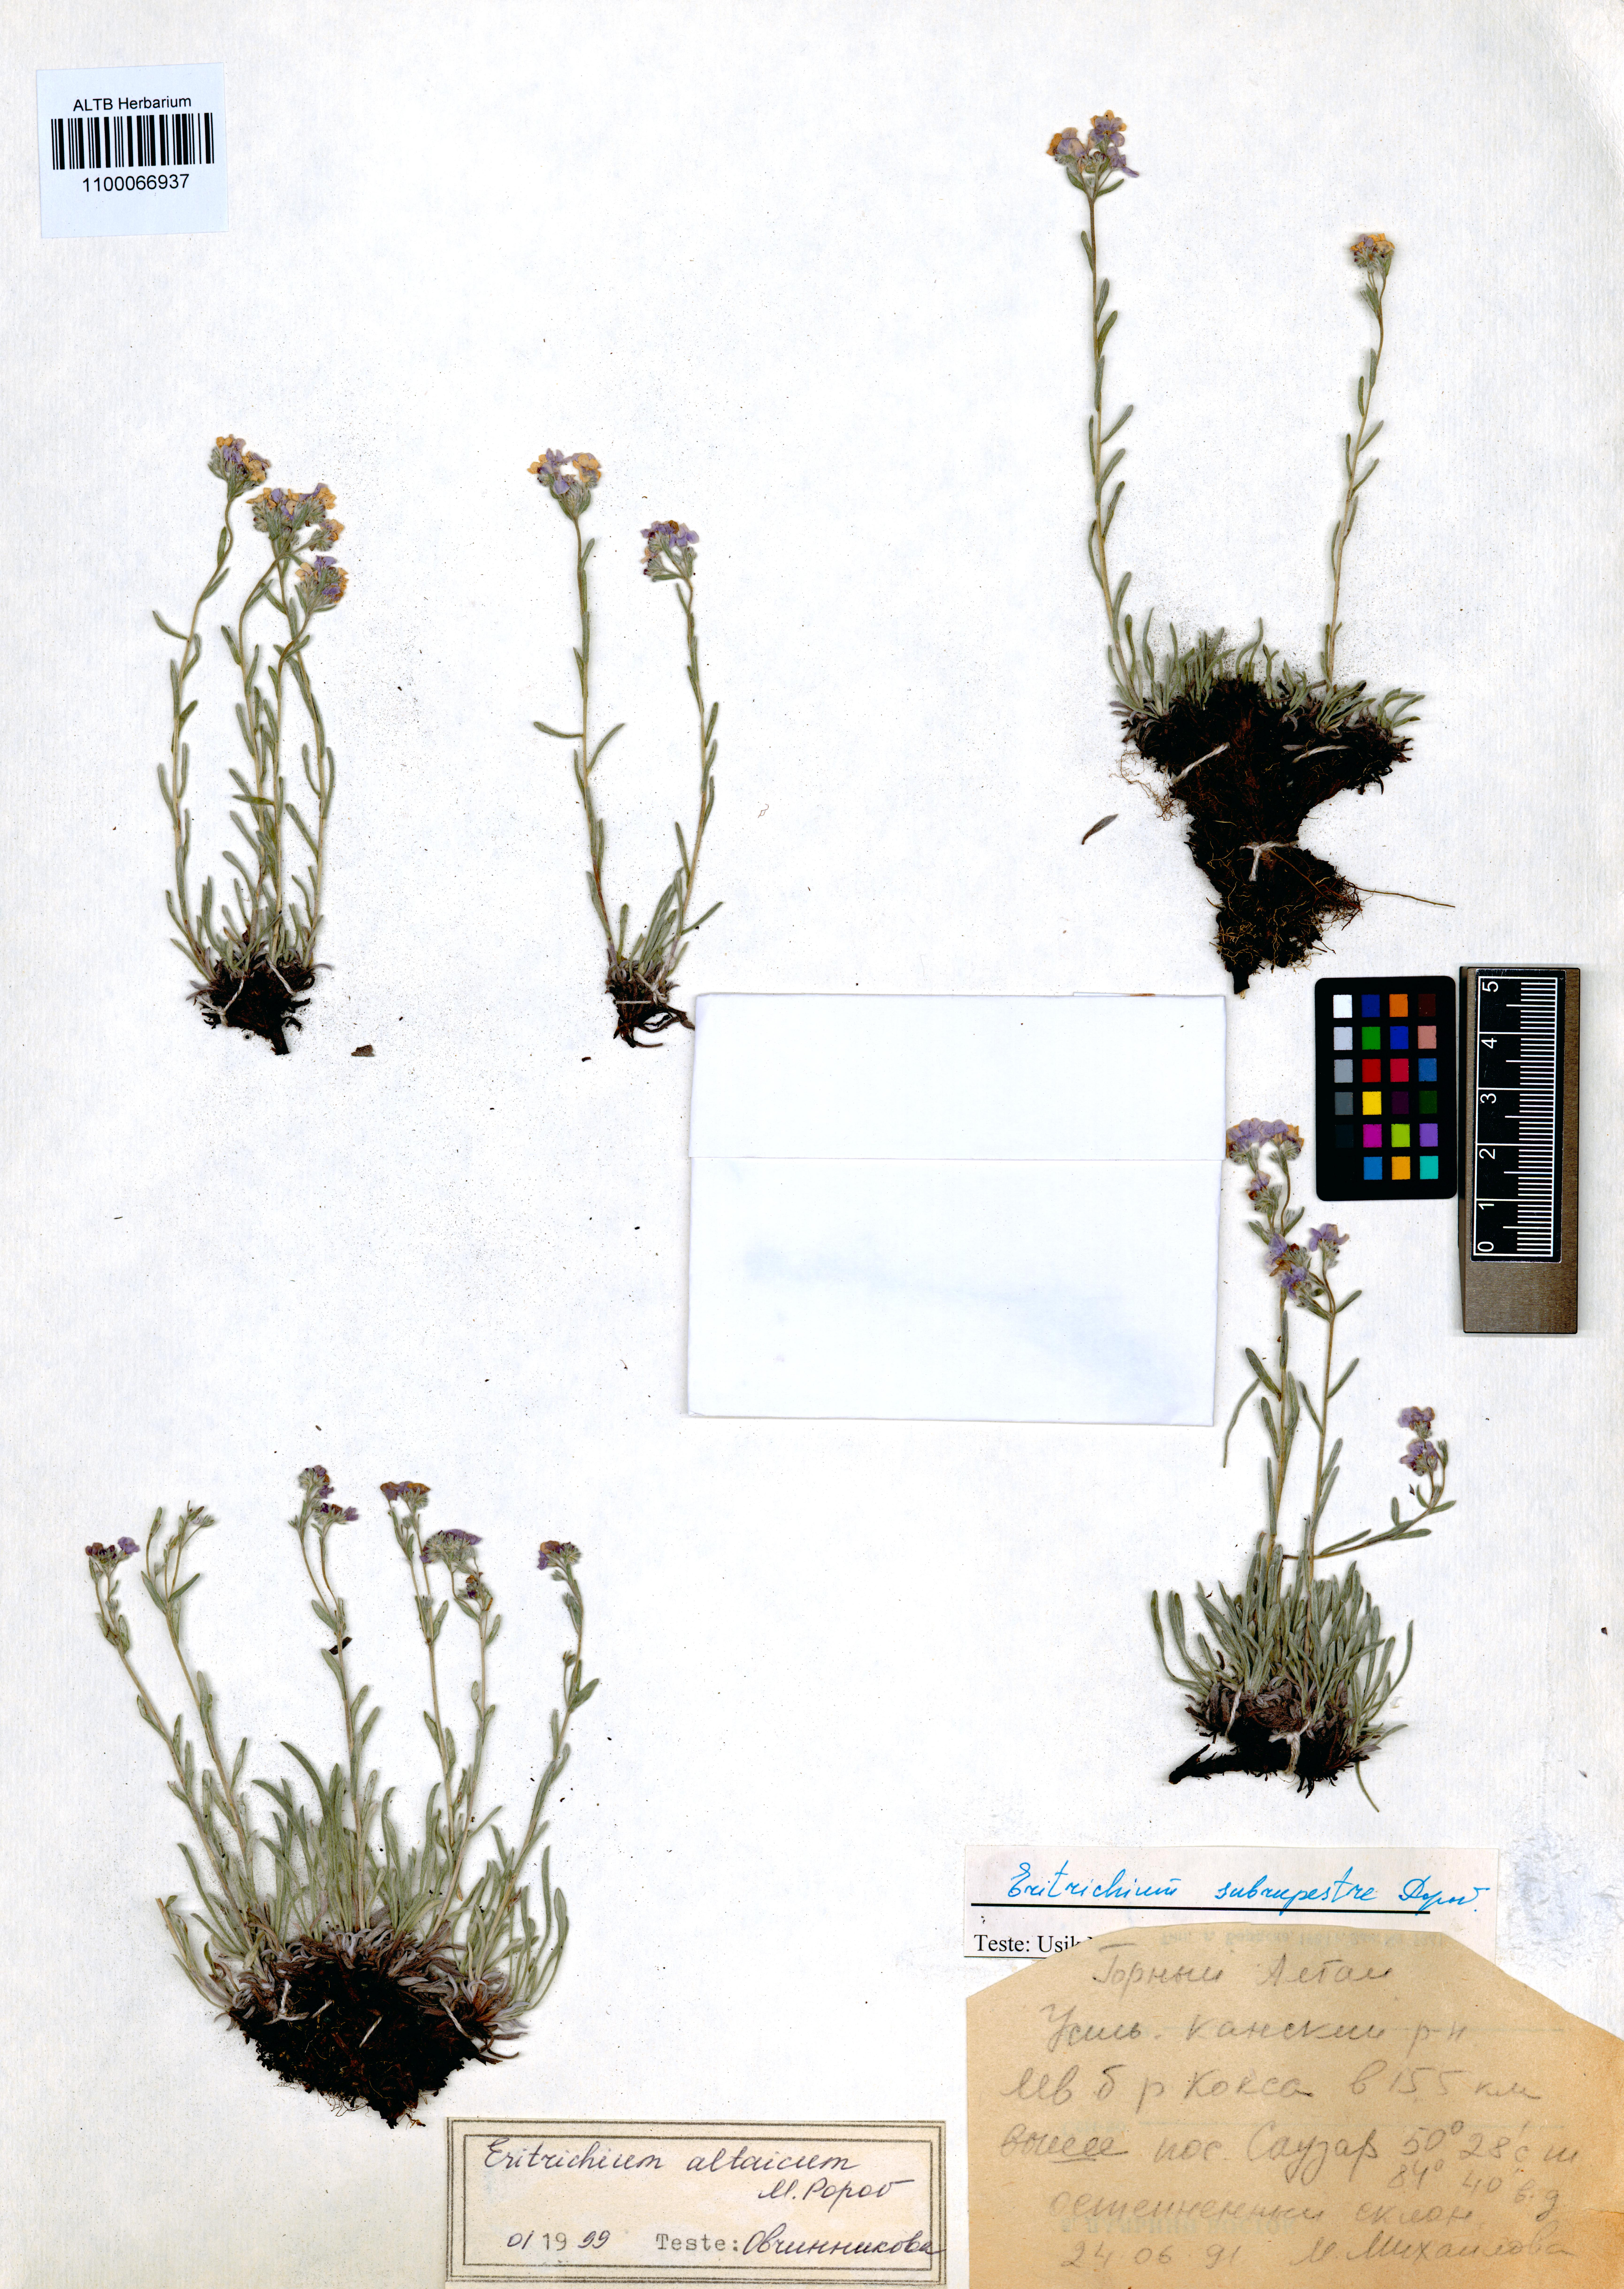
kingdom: Plantae
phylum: Tracheophyta
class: Magnoliopsida
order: Boraginales
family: Boraginaceae
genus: Eritrichium
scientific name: Eritrichium pauciflorum
